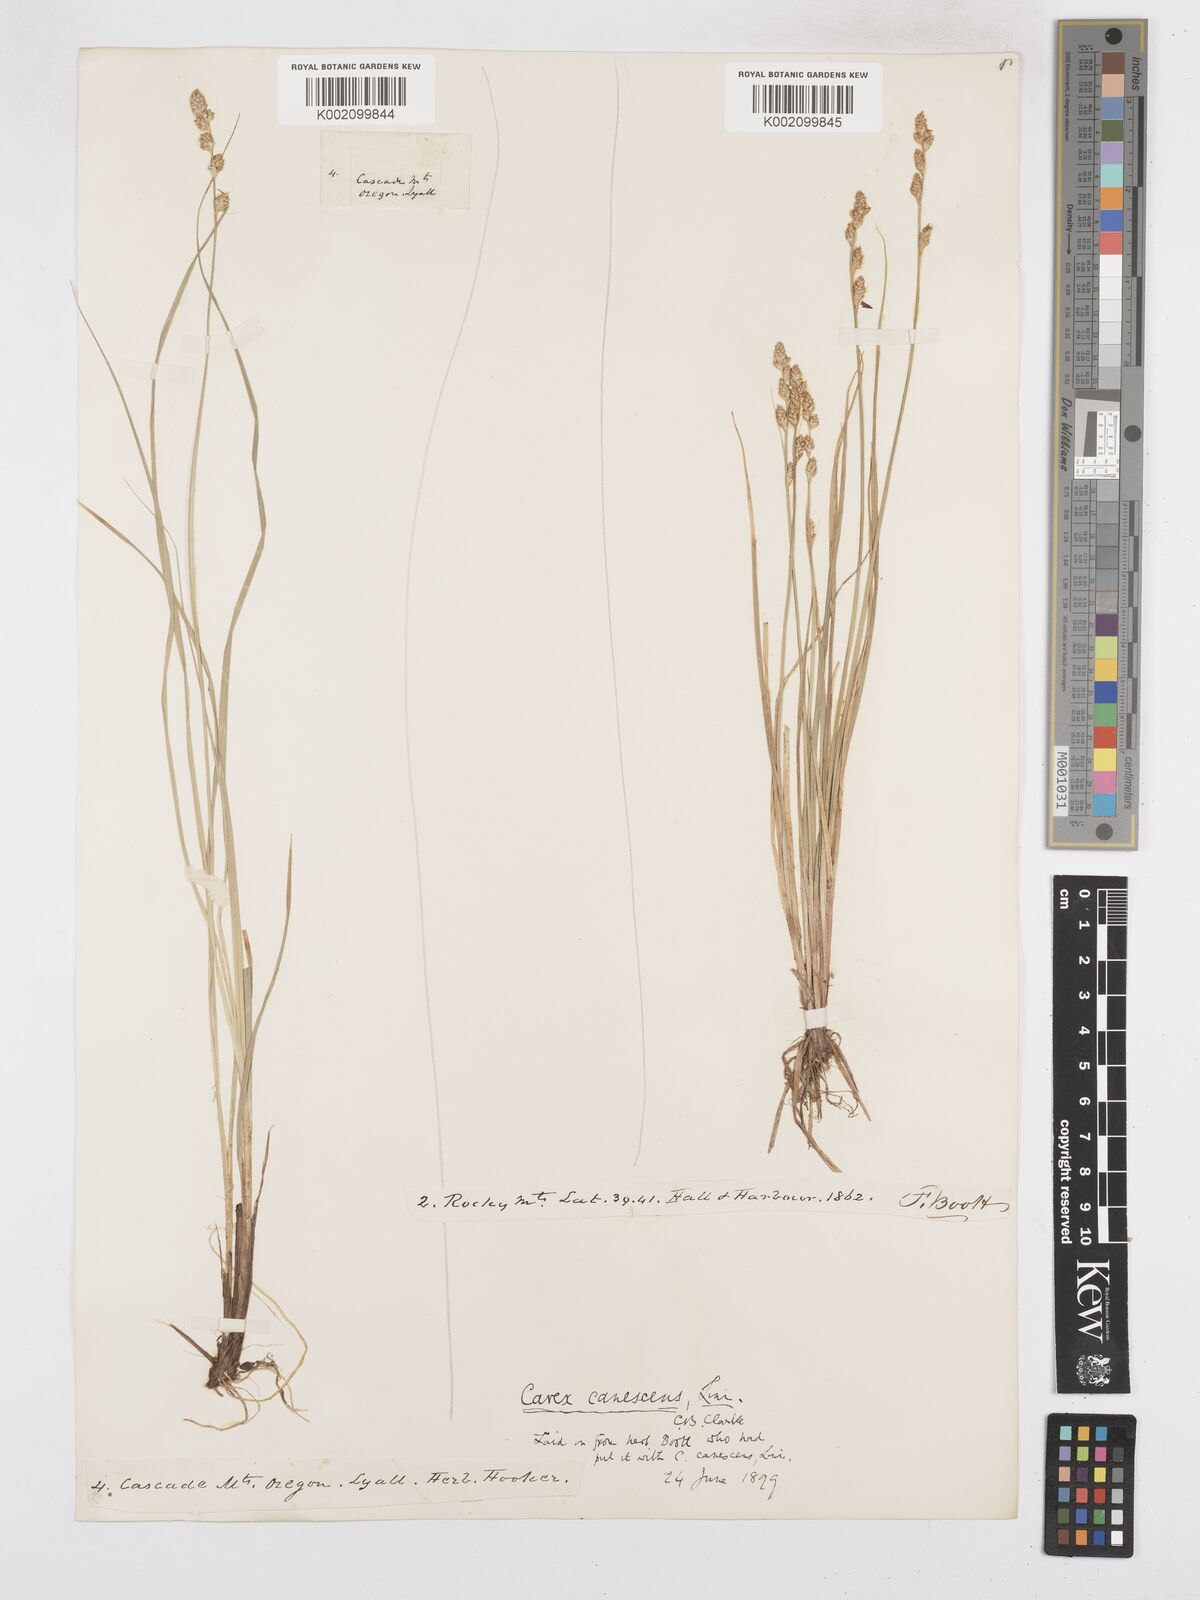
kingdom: Plantae
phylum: Tracheophyta
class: Liliopsida
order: Poales
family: Cyperaceae
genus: Carex
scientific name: Carex curta
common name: White sedge
